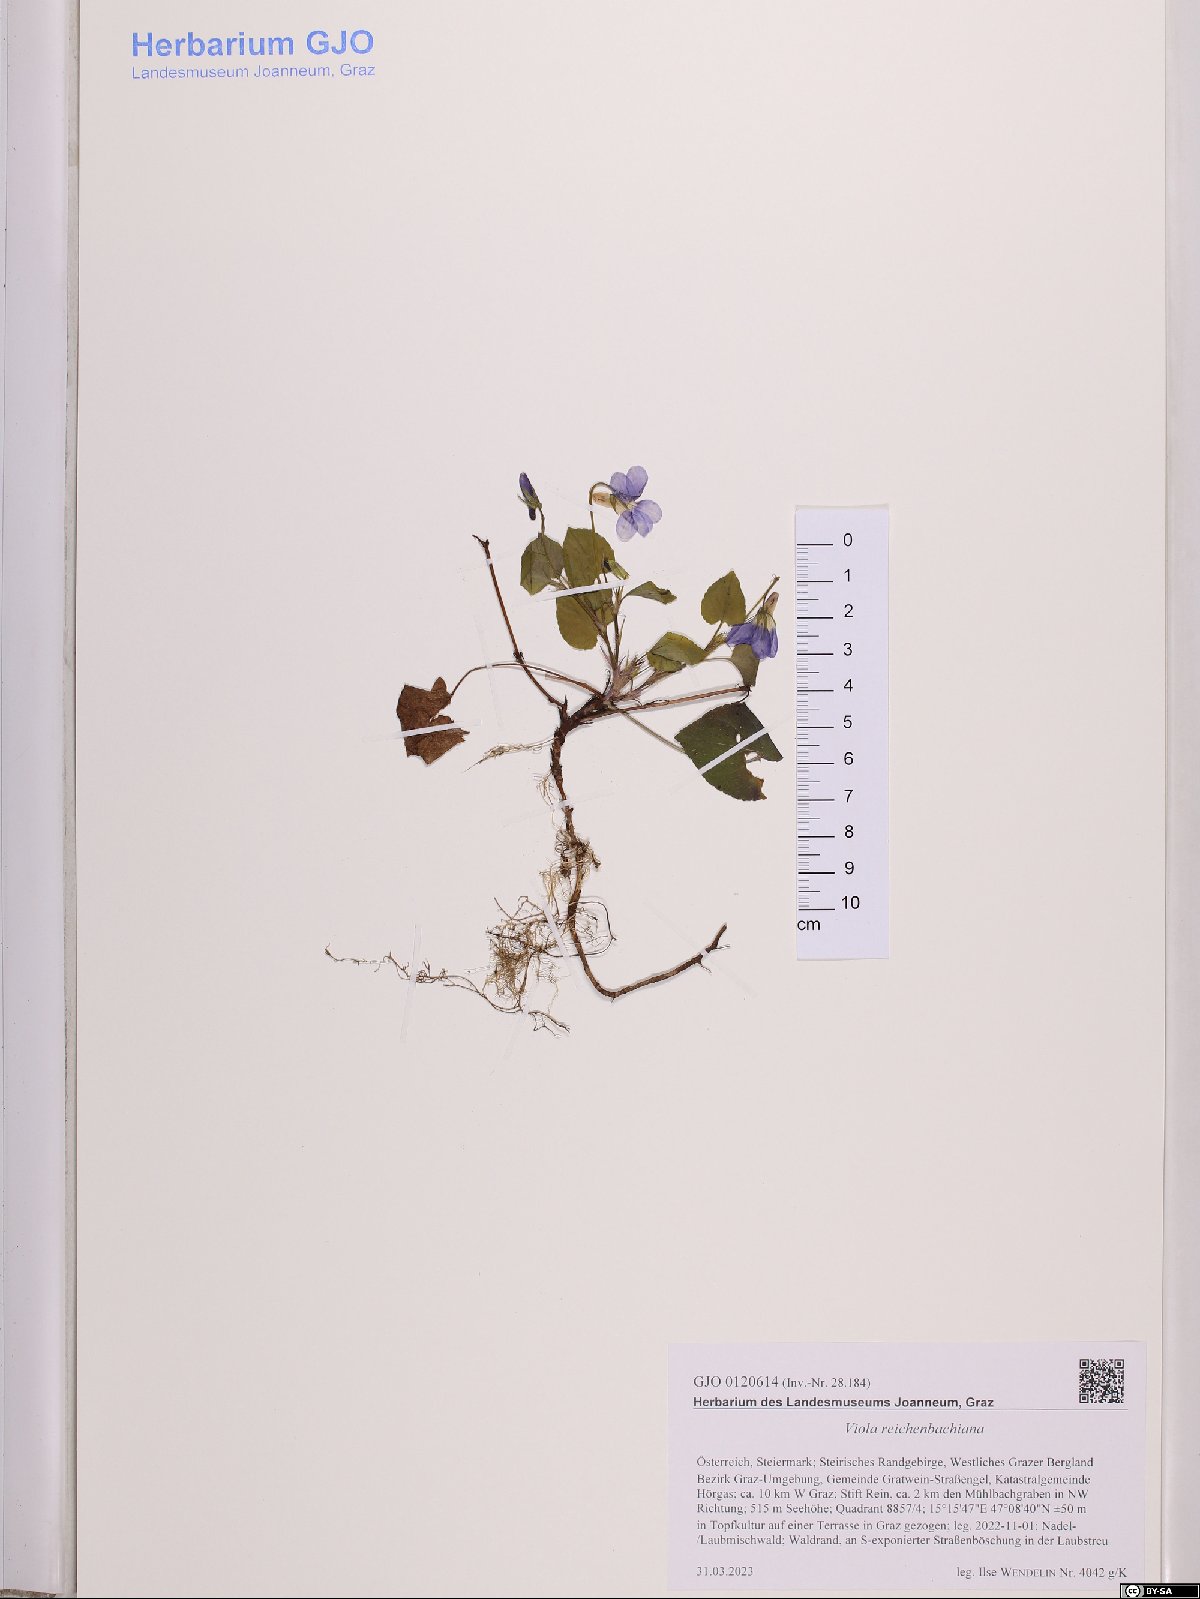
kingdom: Plantae
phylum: Tracheophyta
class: Magnoliopsida
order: Malpighiales
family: Violaceae
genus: Viola
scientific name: Viola reichenbachiana
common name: Early dog-violet
